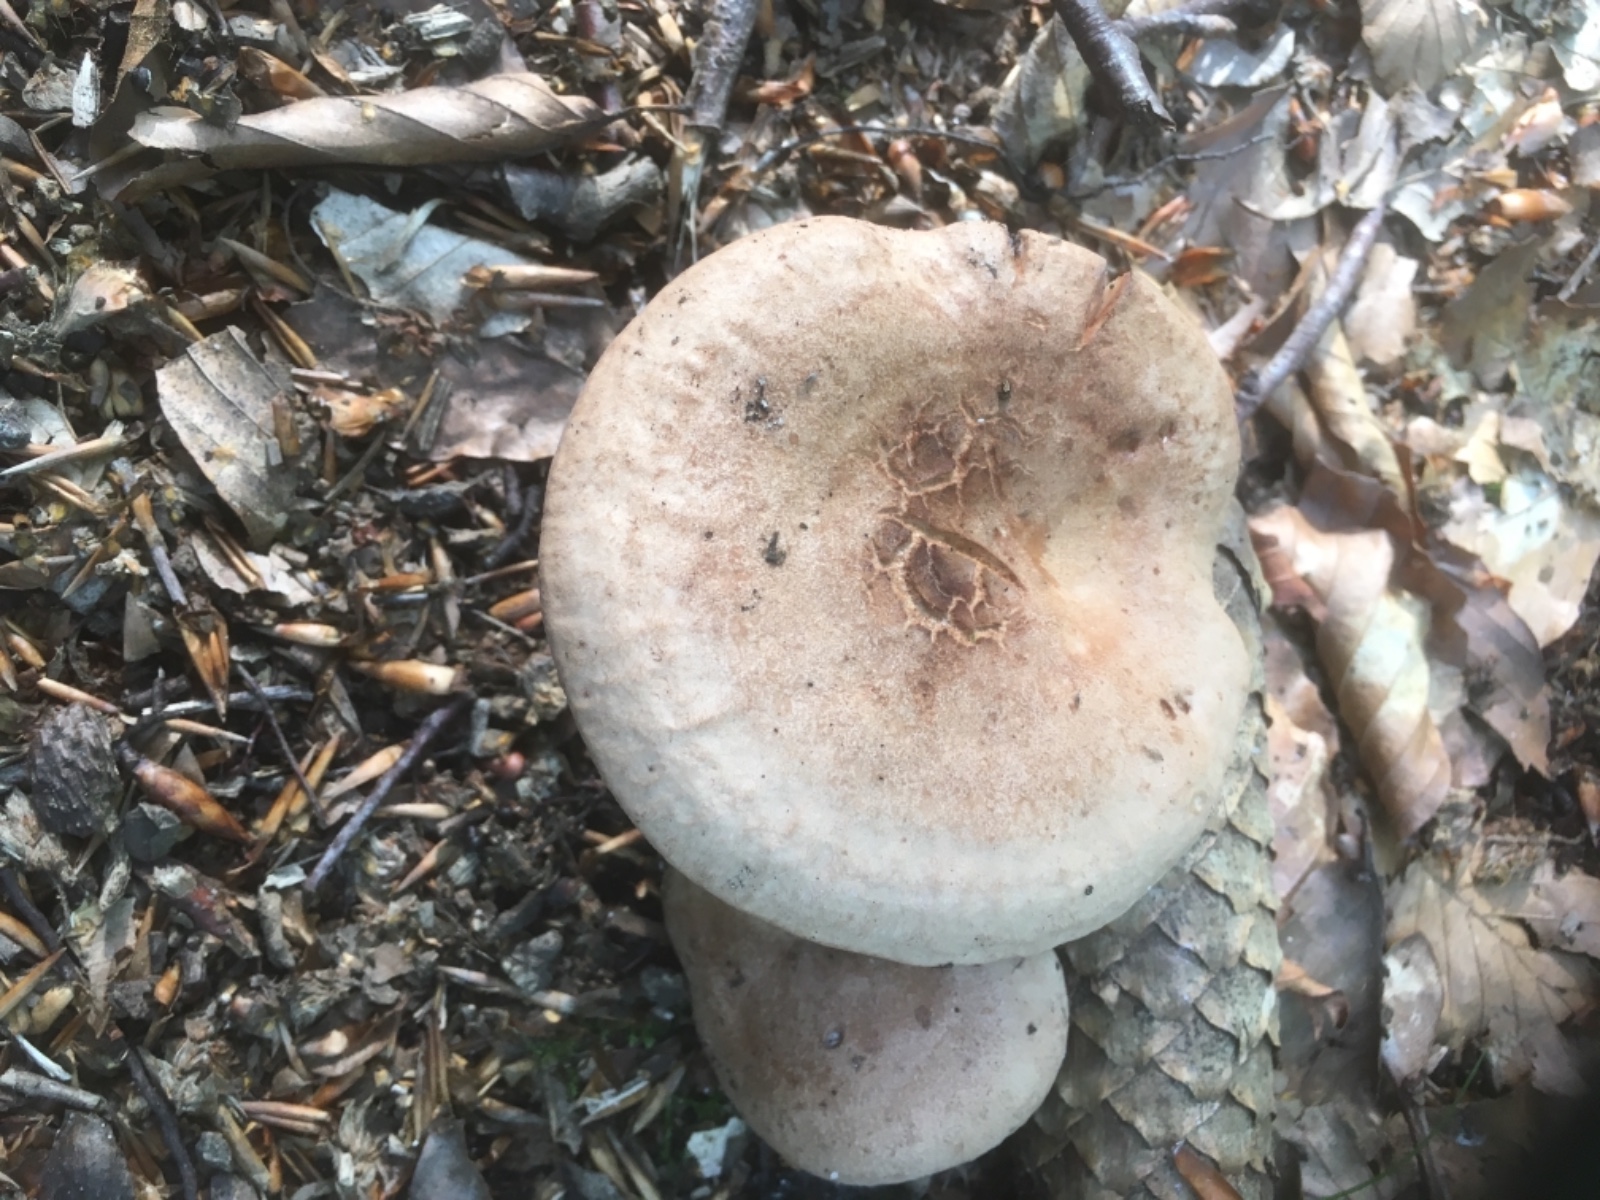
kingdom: Fungi
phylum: Basidiomycota
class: Agaricomycetes
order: Russulales
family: Russulaceae
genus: Lactarius
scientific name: Lactarius quietus
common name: ege-mælkehat
